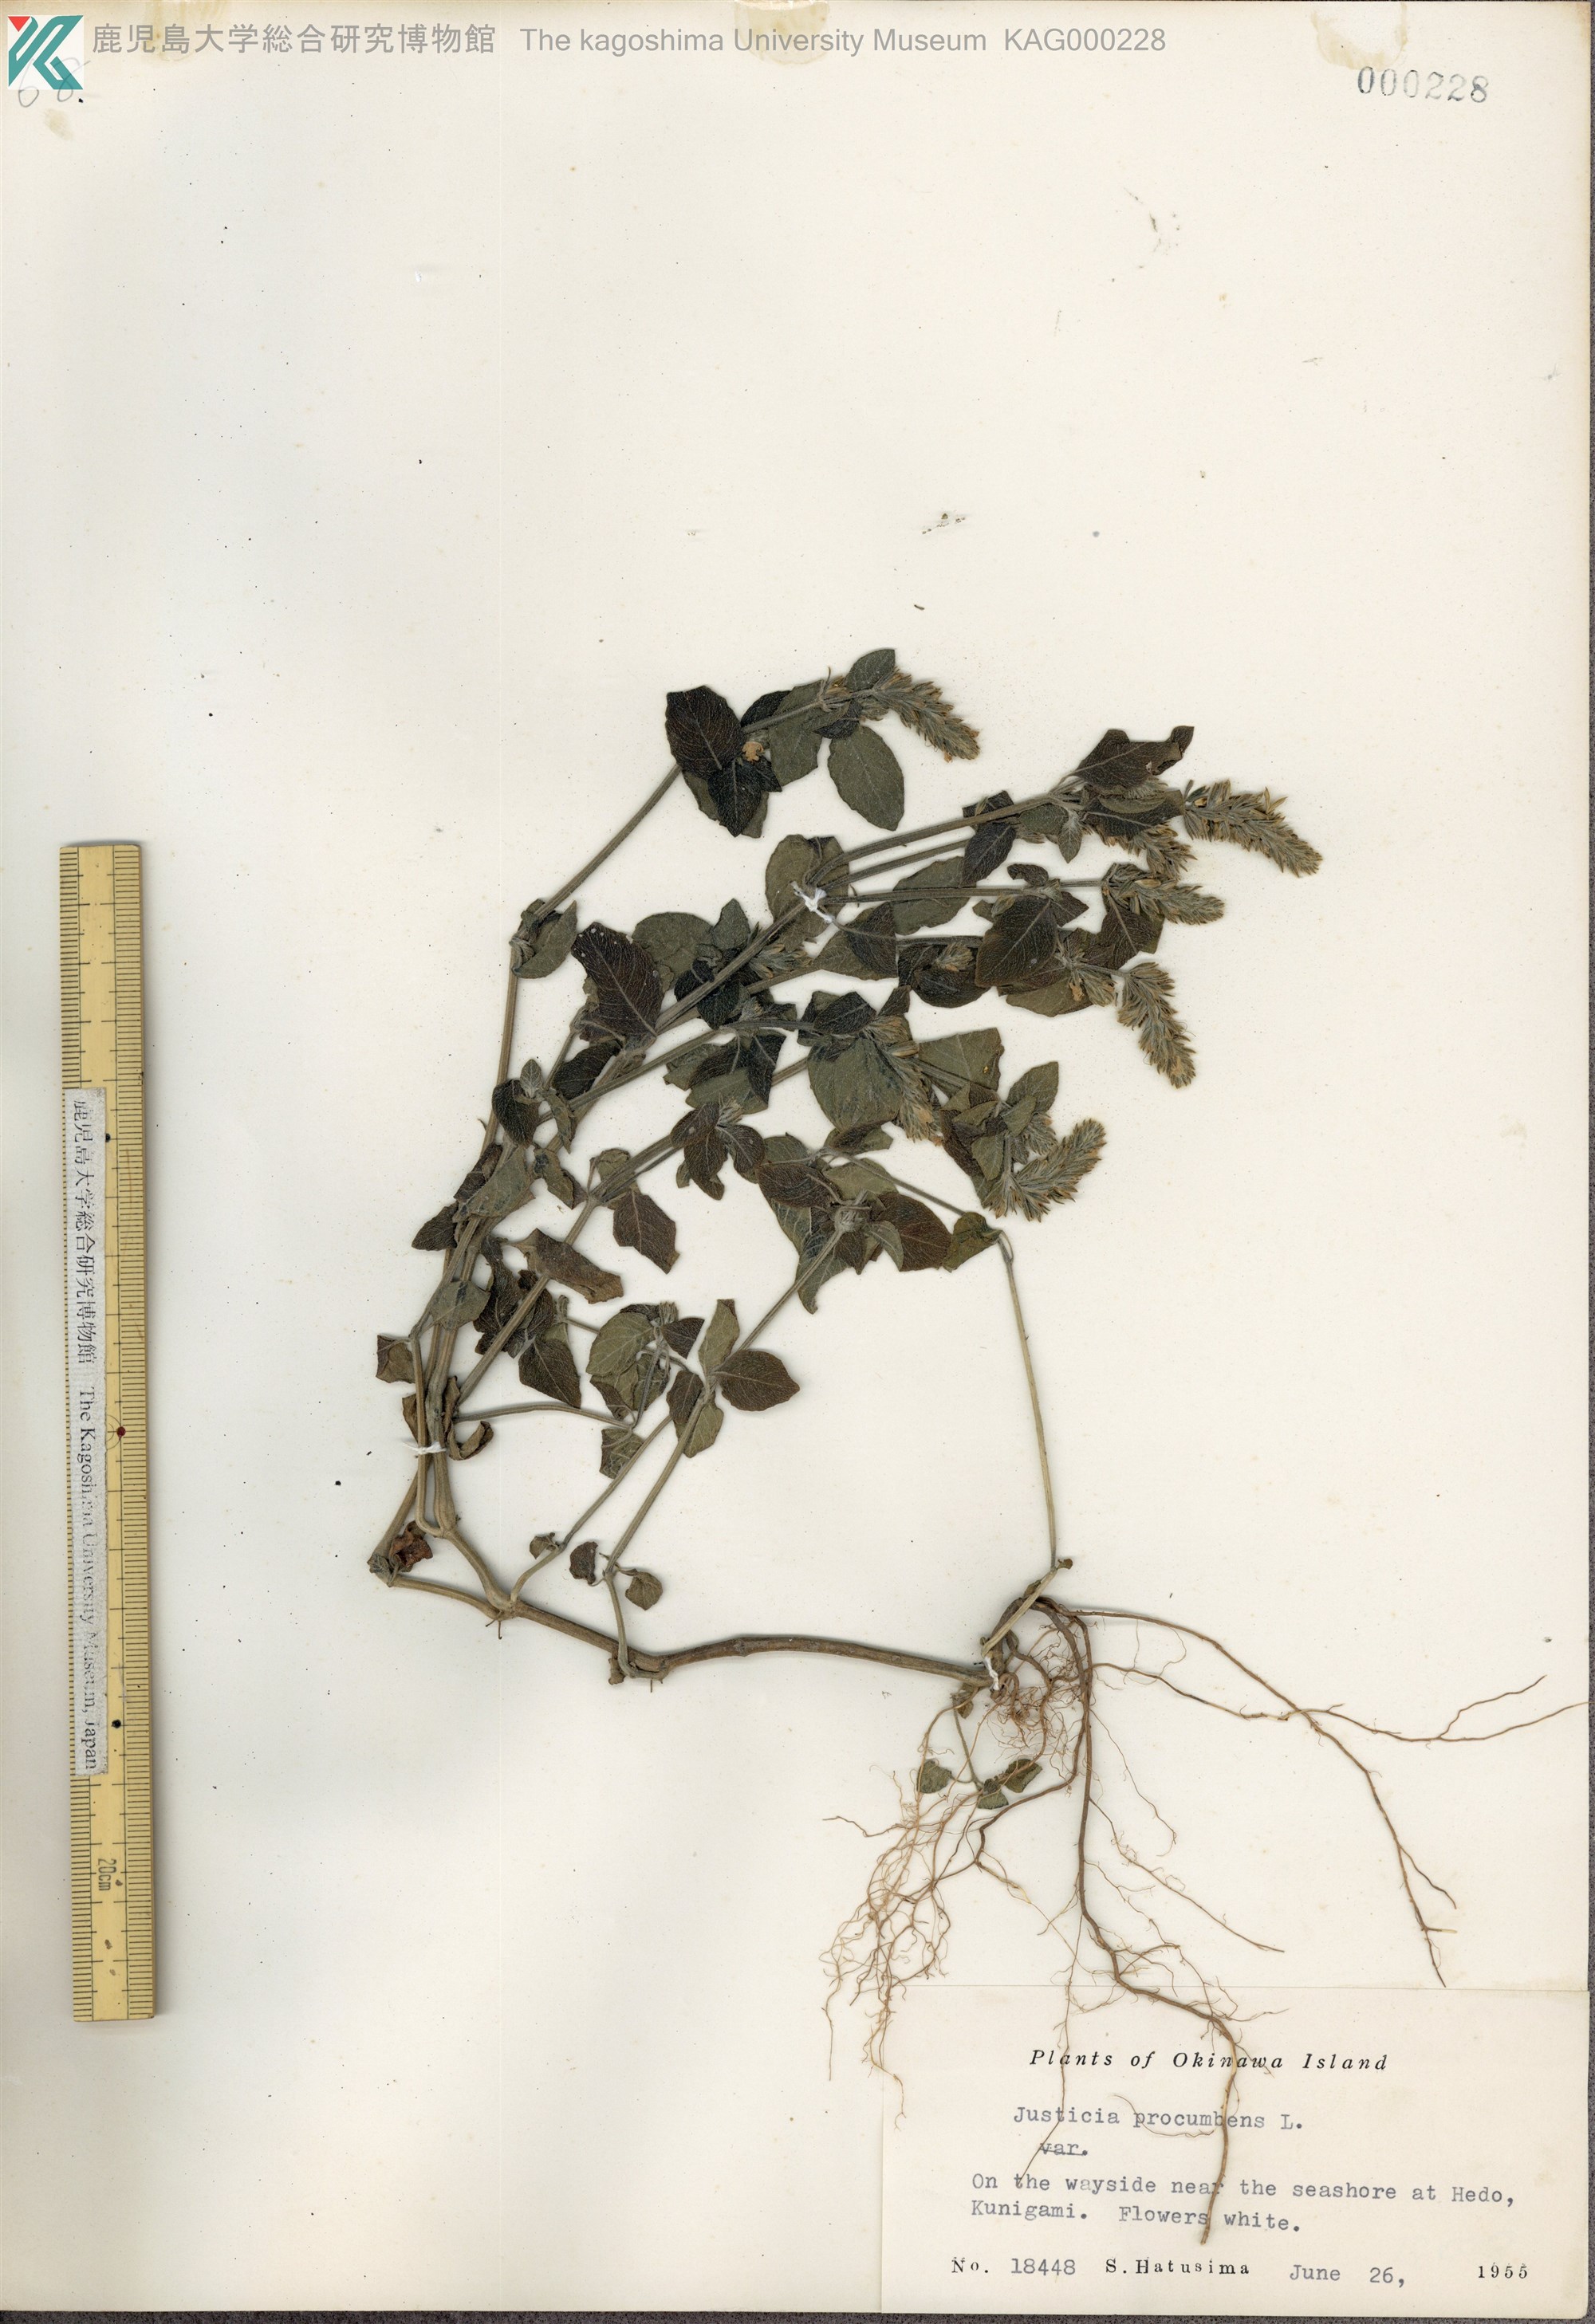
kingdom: Plantae
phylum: Tracheophyta
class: Magnoliopsida
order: Lamiales
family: Acanthaceae
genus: Rostellularia
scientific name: Rostellularia procumbens
